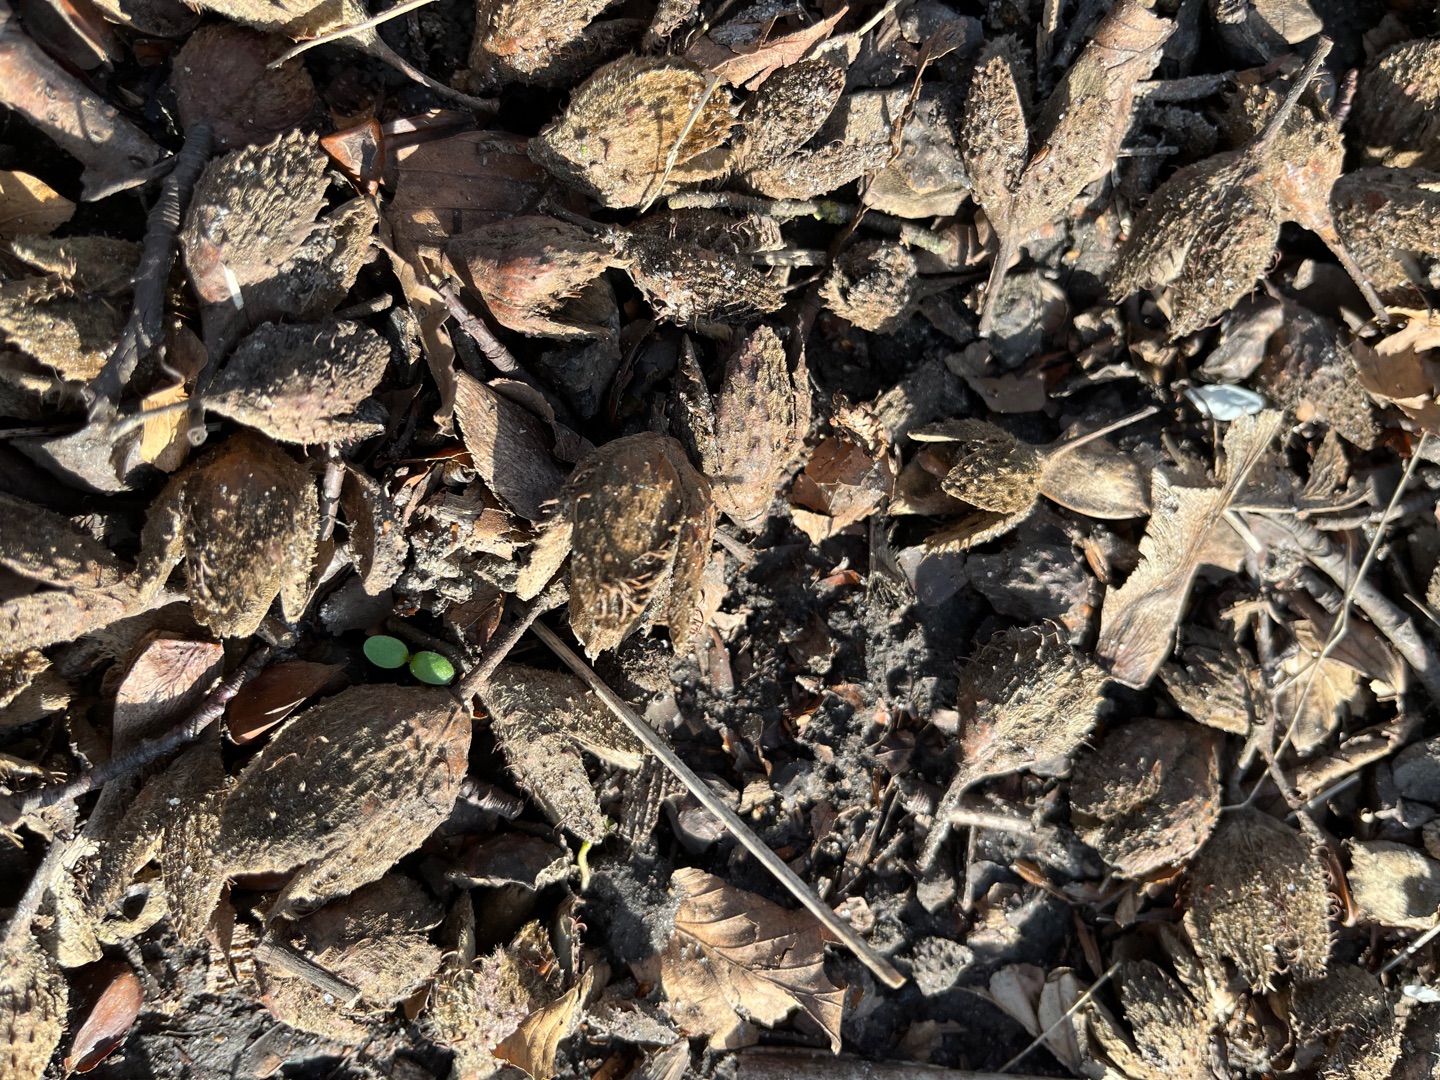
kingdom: Plantae
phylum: Tracheophyta
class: Magnoliopsida
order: Fagales
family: Fagaceae
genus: Fagus
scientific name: Fagus sylvatica
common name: Bøg
